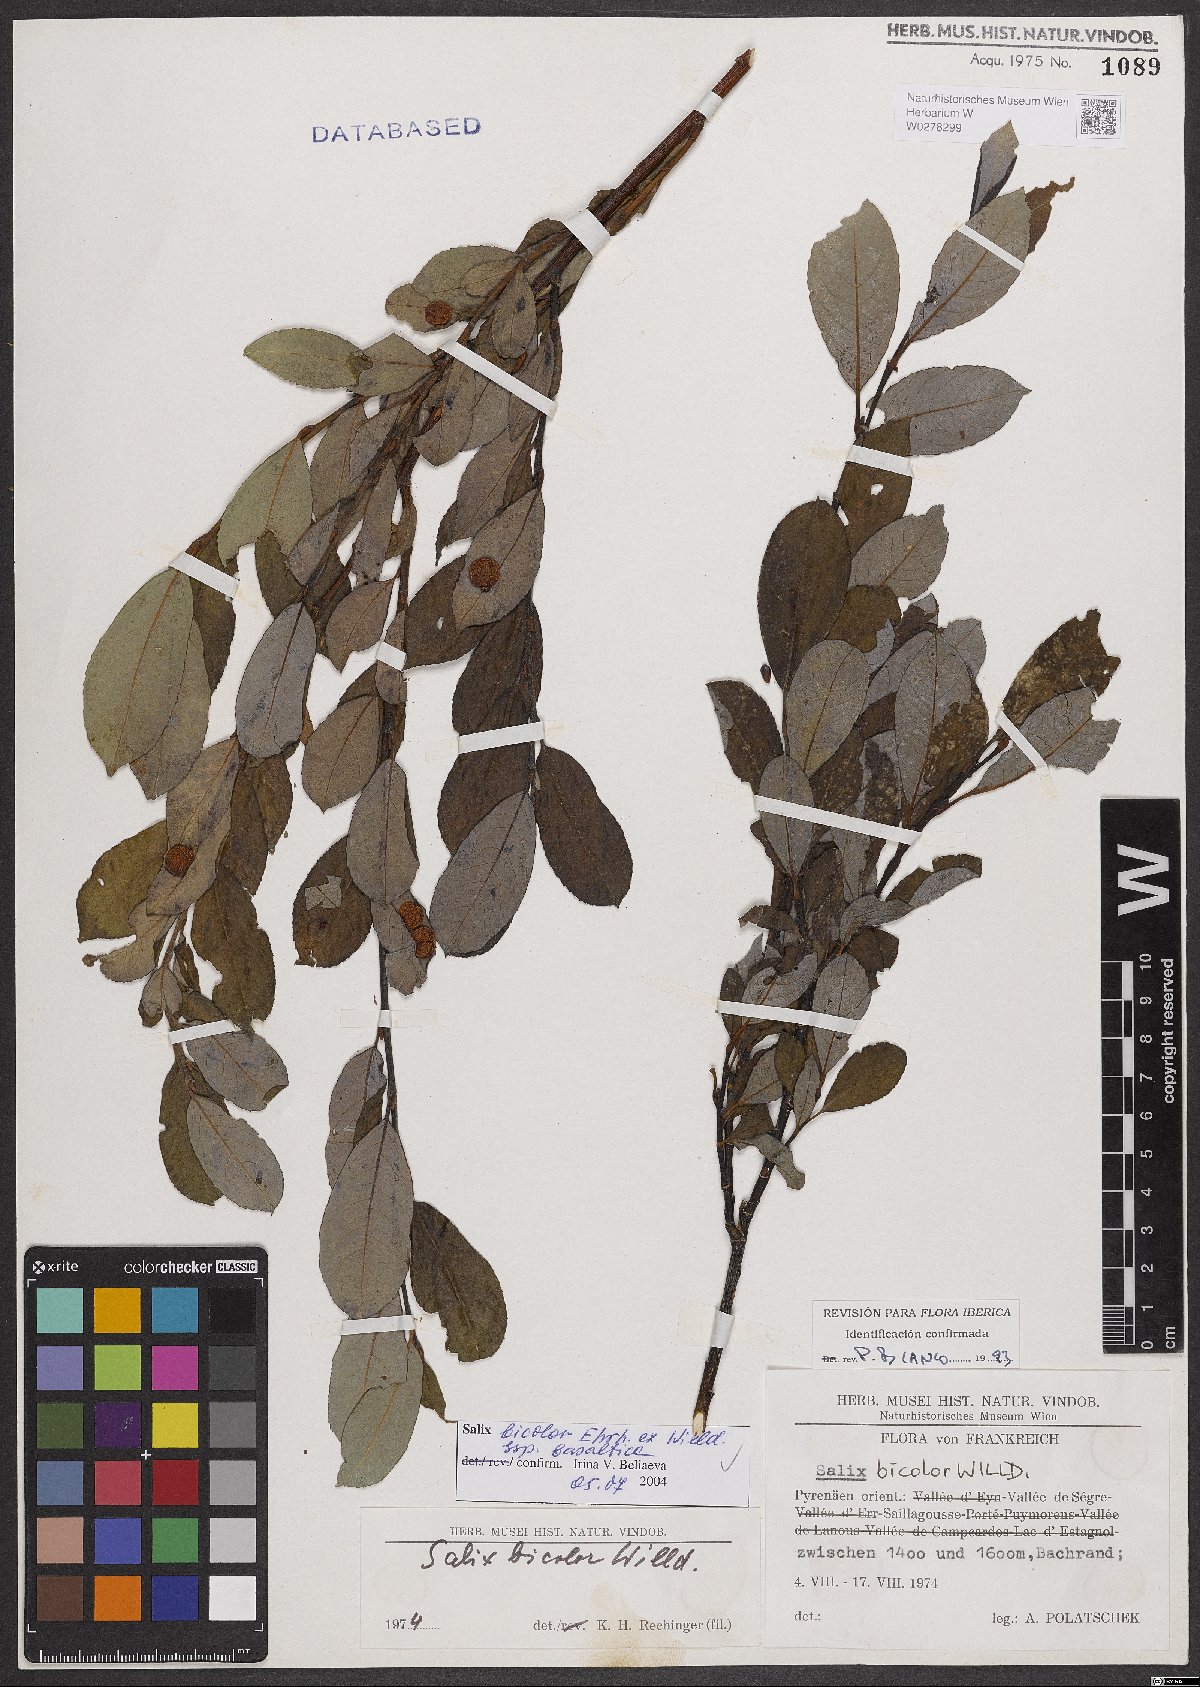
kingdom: Plantae
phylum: Tracheophyta
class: Magnoliopsida
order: Malpighiales
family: Salicaceae
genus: Salix
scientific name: Salix basaltica
